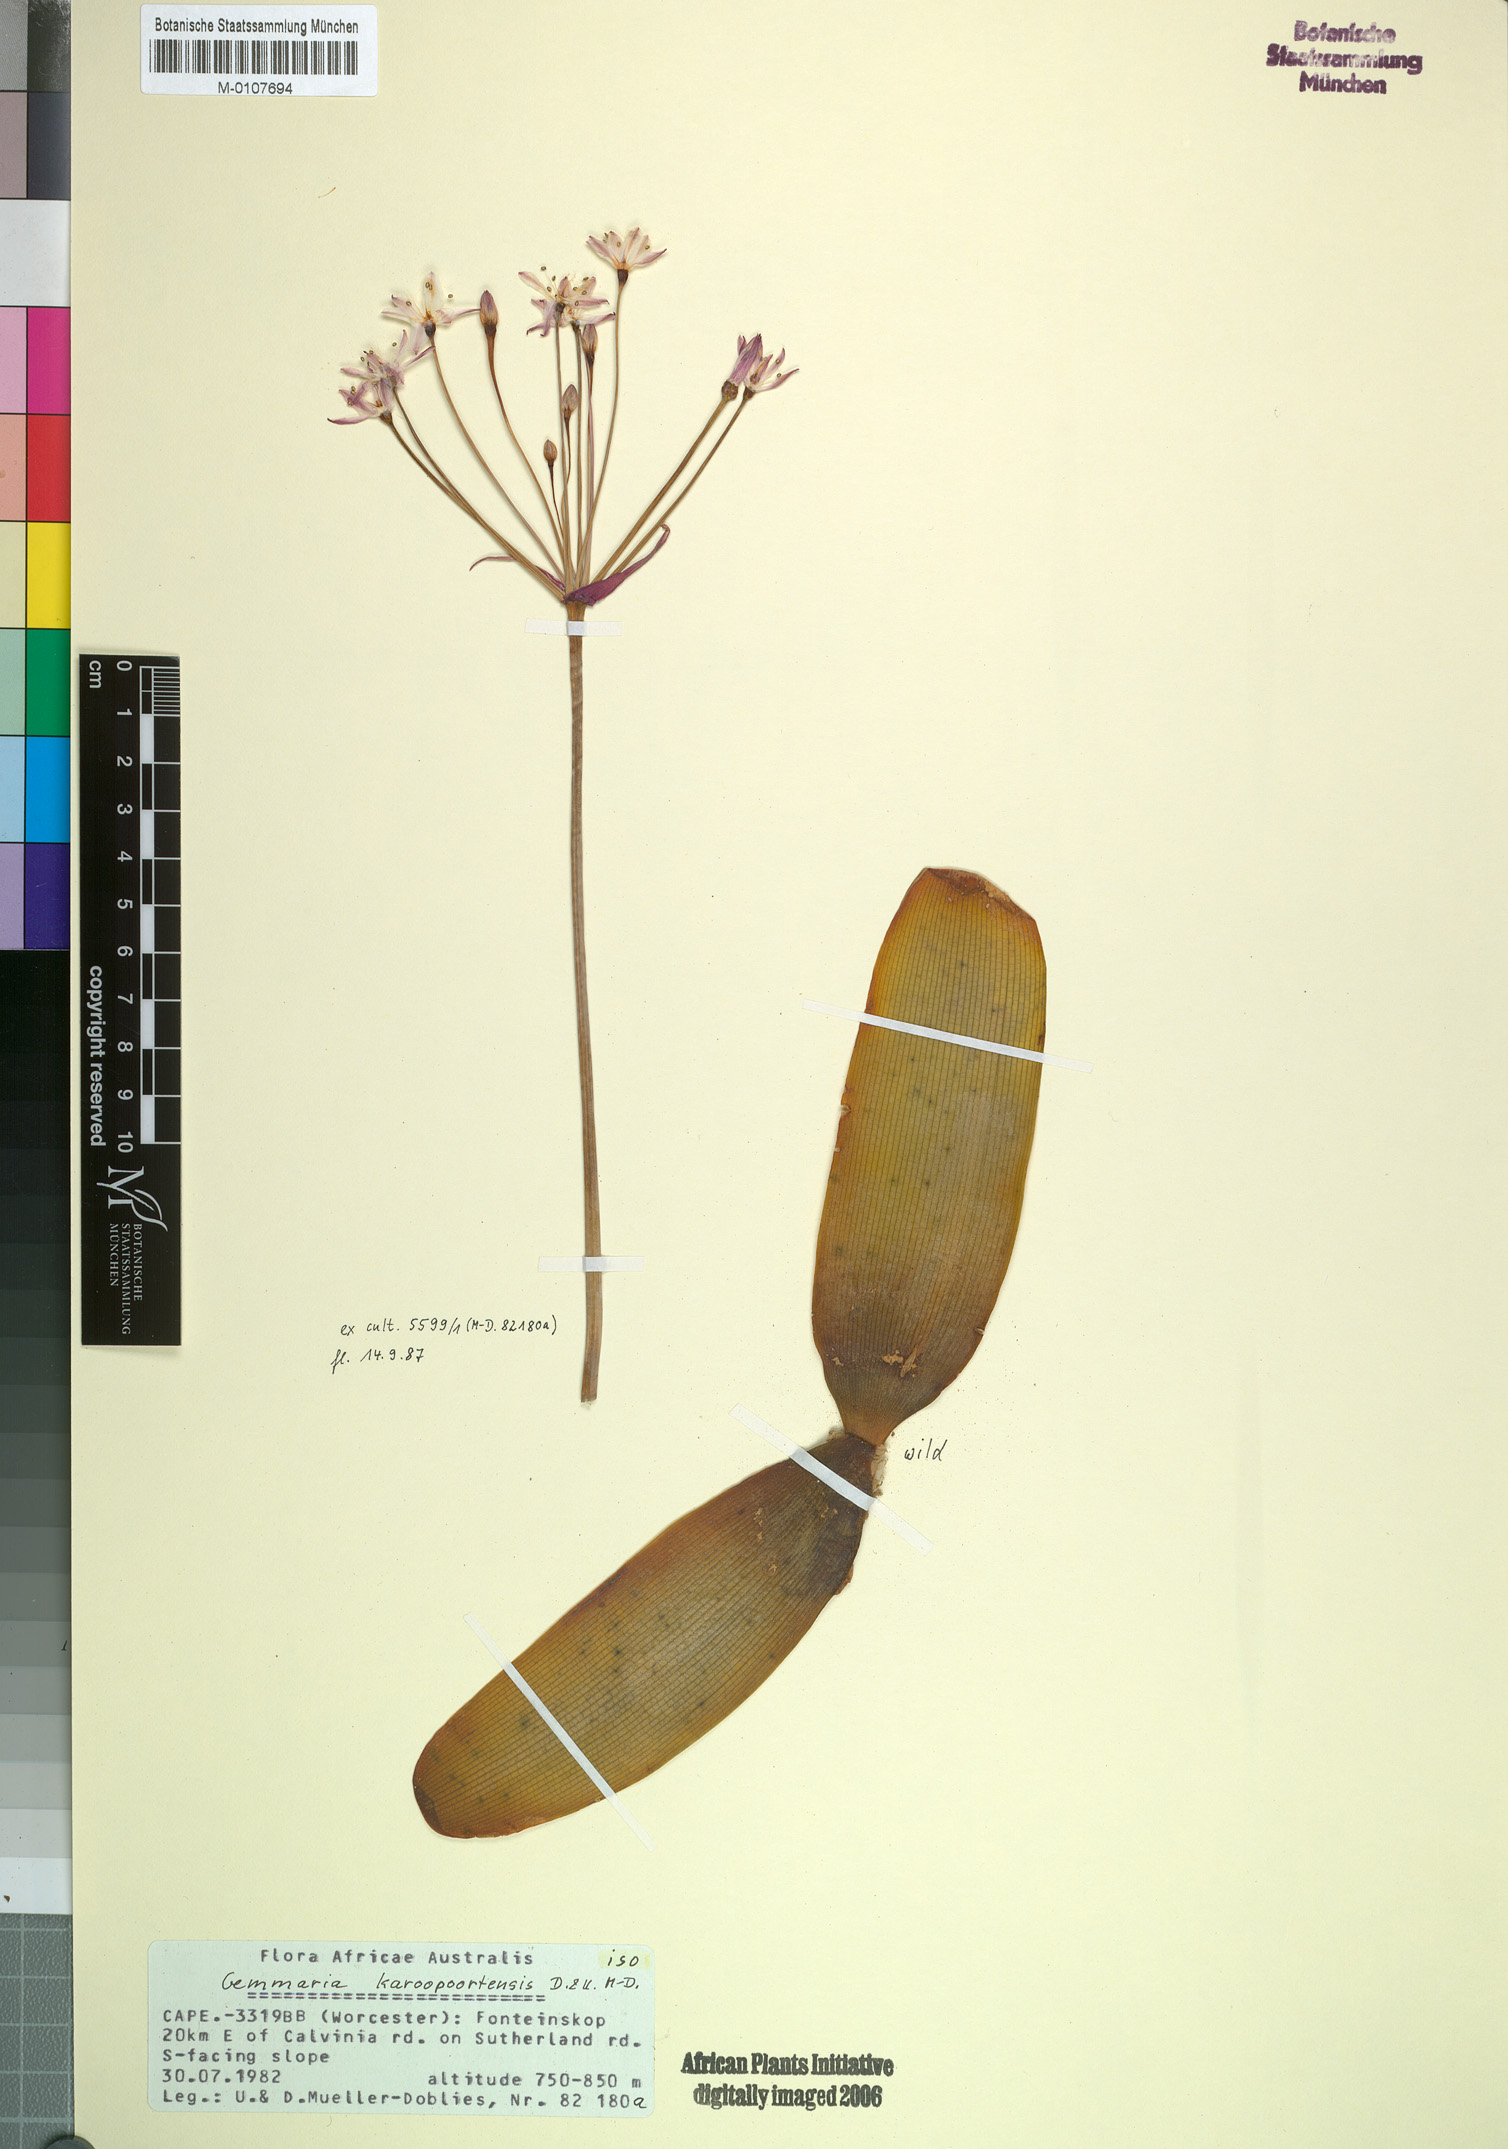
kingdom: Plantae
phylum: Tracheophyta
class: Liliopsida
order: Asparagales
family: Amaryllidaceae
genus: Strumaria
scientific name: Strumaria karoopoortensis
